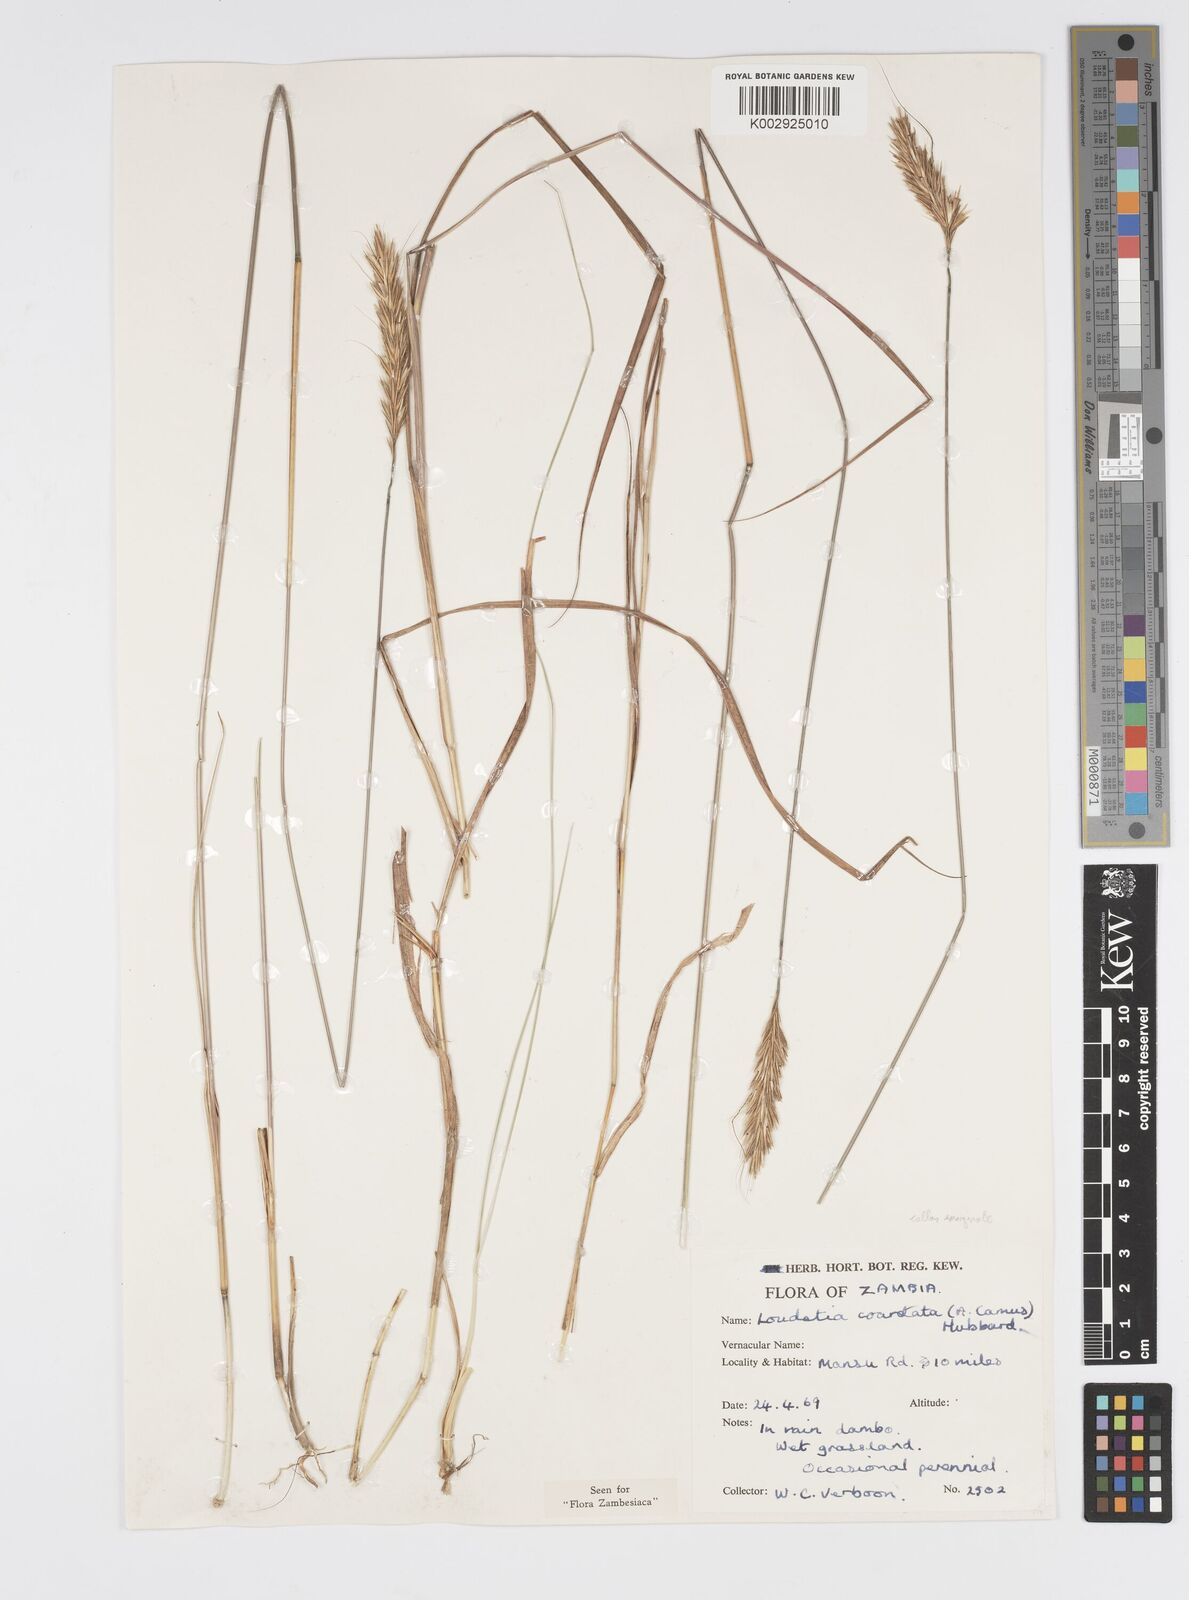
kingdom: Plantae
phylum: Tracheophyta
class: Liliopsida
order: Poales
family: Poaceae
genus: Loudetia
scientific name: Loudetia coarctata
